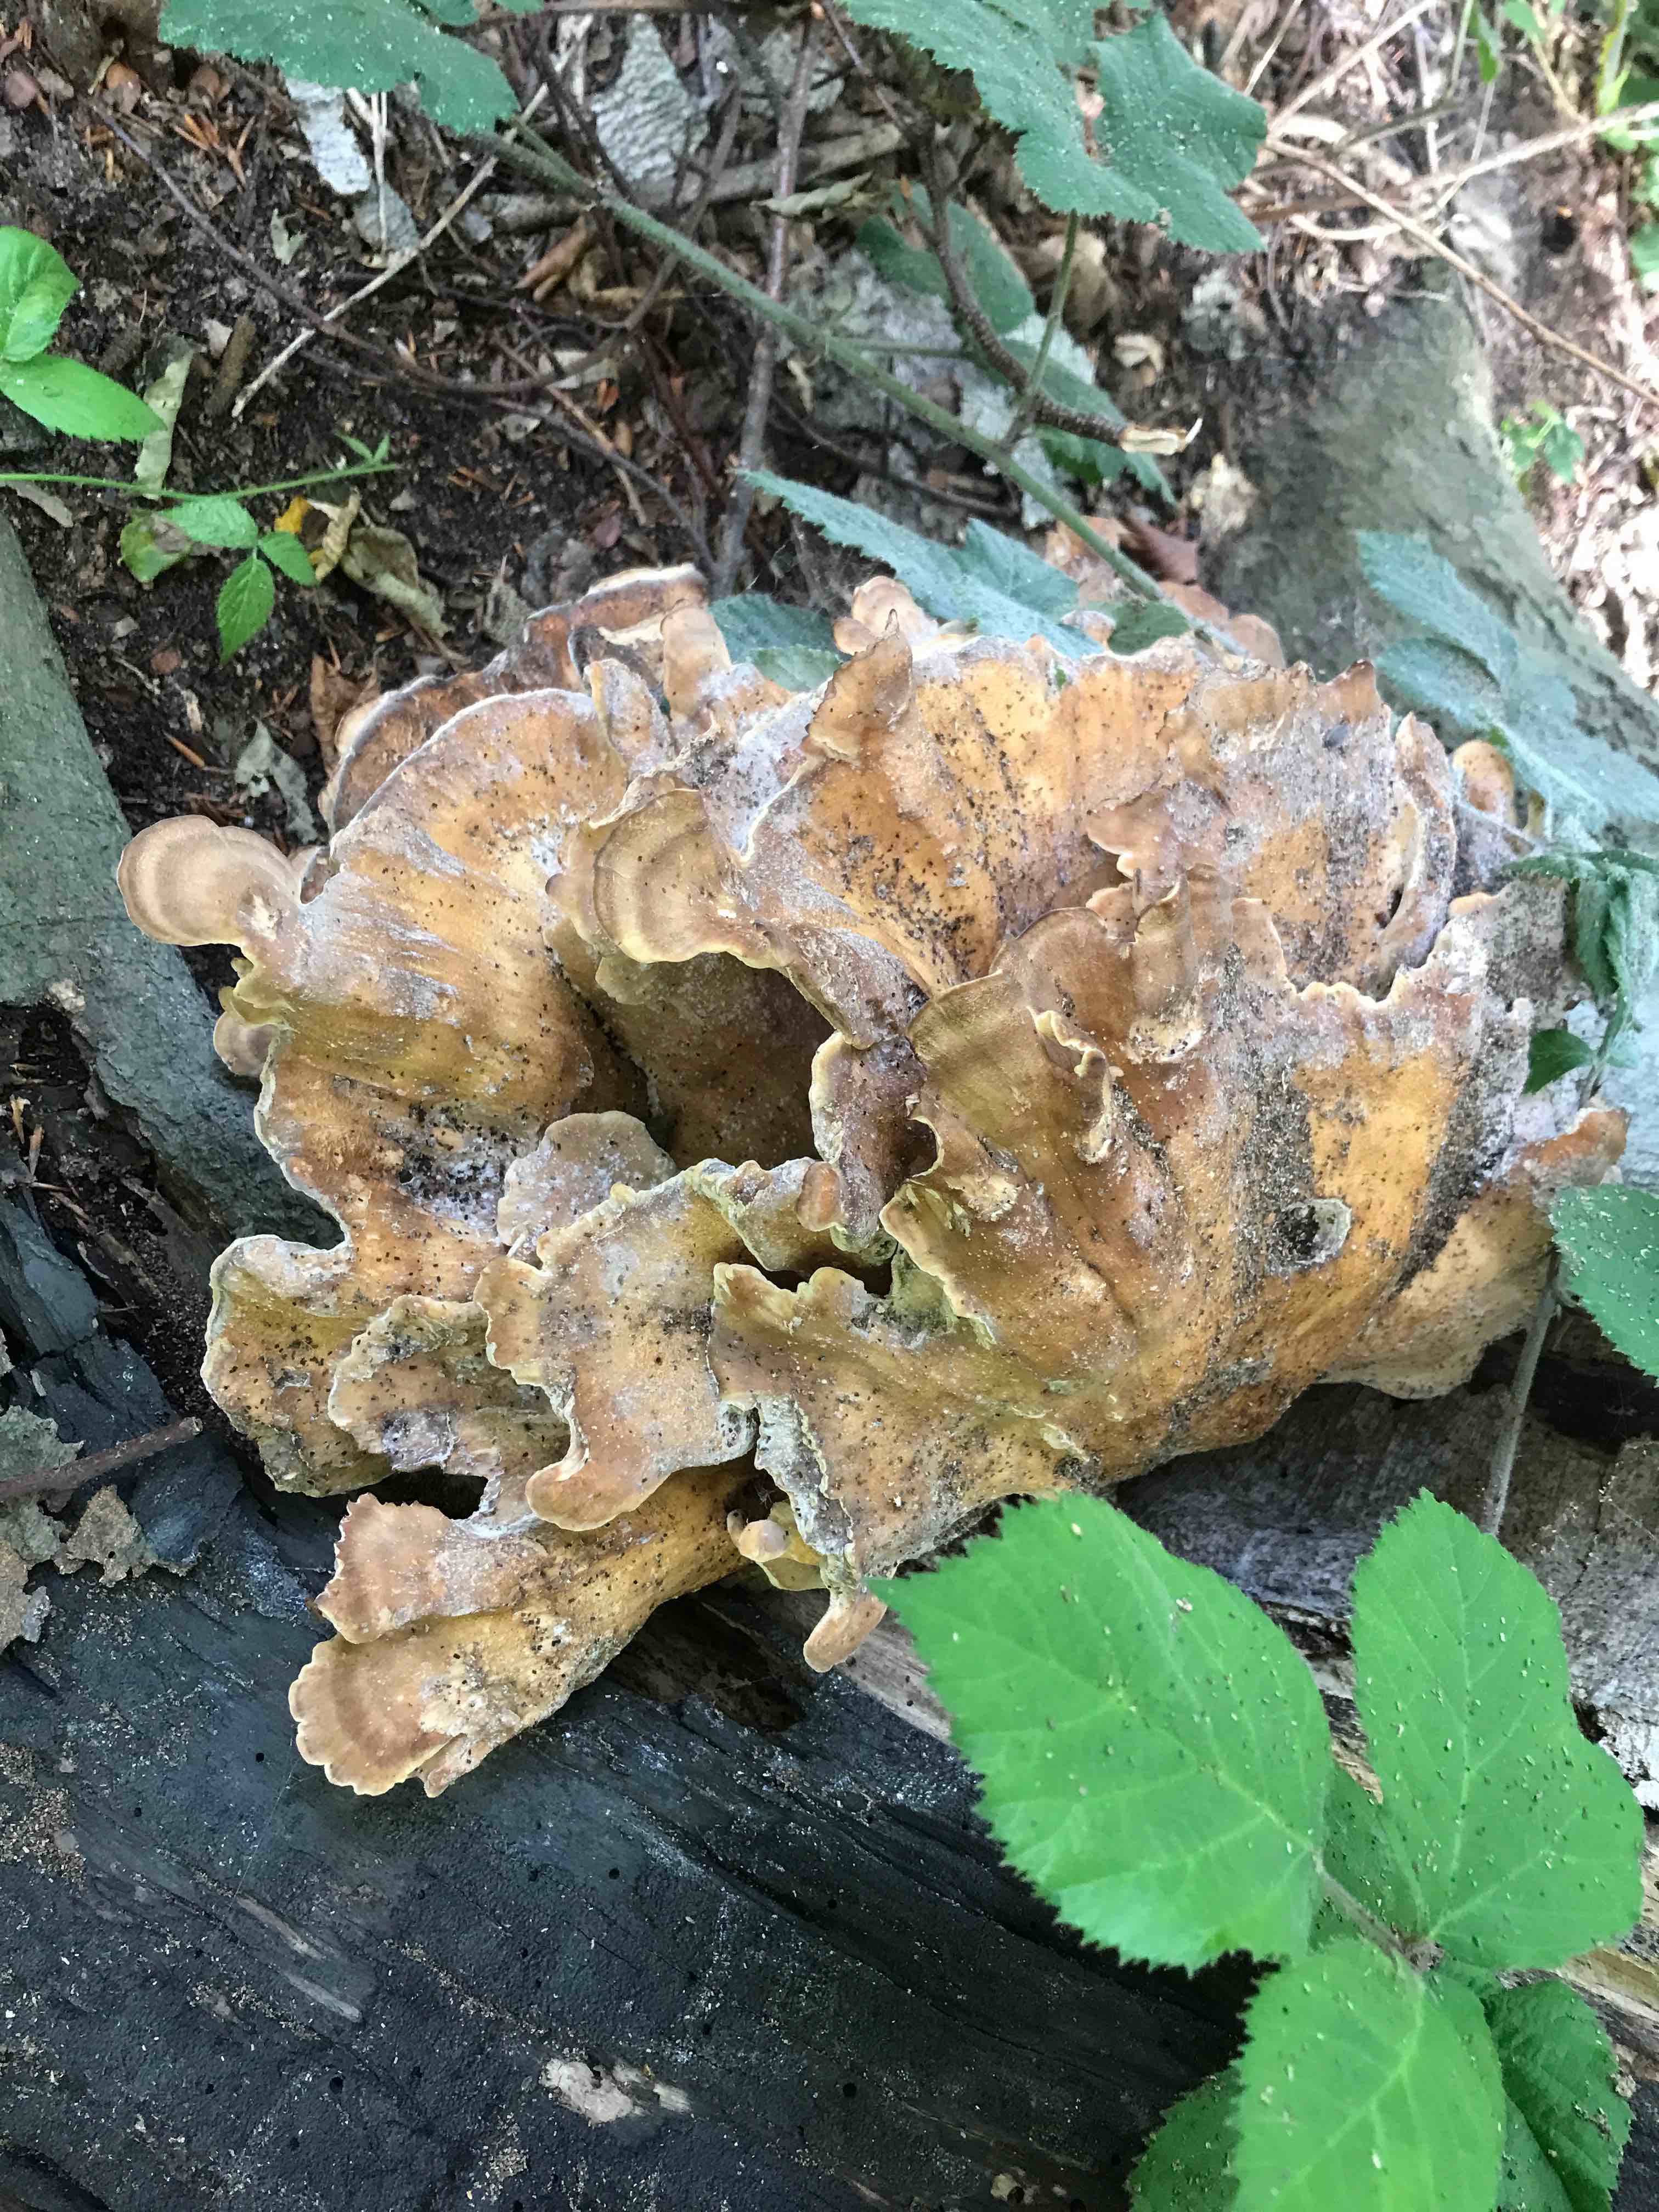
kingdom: Fungi
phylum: Basidiomycota
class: Agaricomycetes
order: Polyporales
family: Meripilaceae
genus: Meripilus
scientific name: Meripilus giganteus
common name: kæmpeporesvamp
